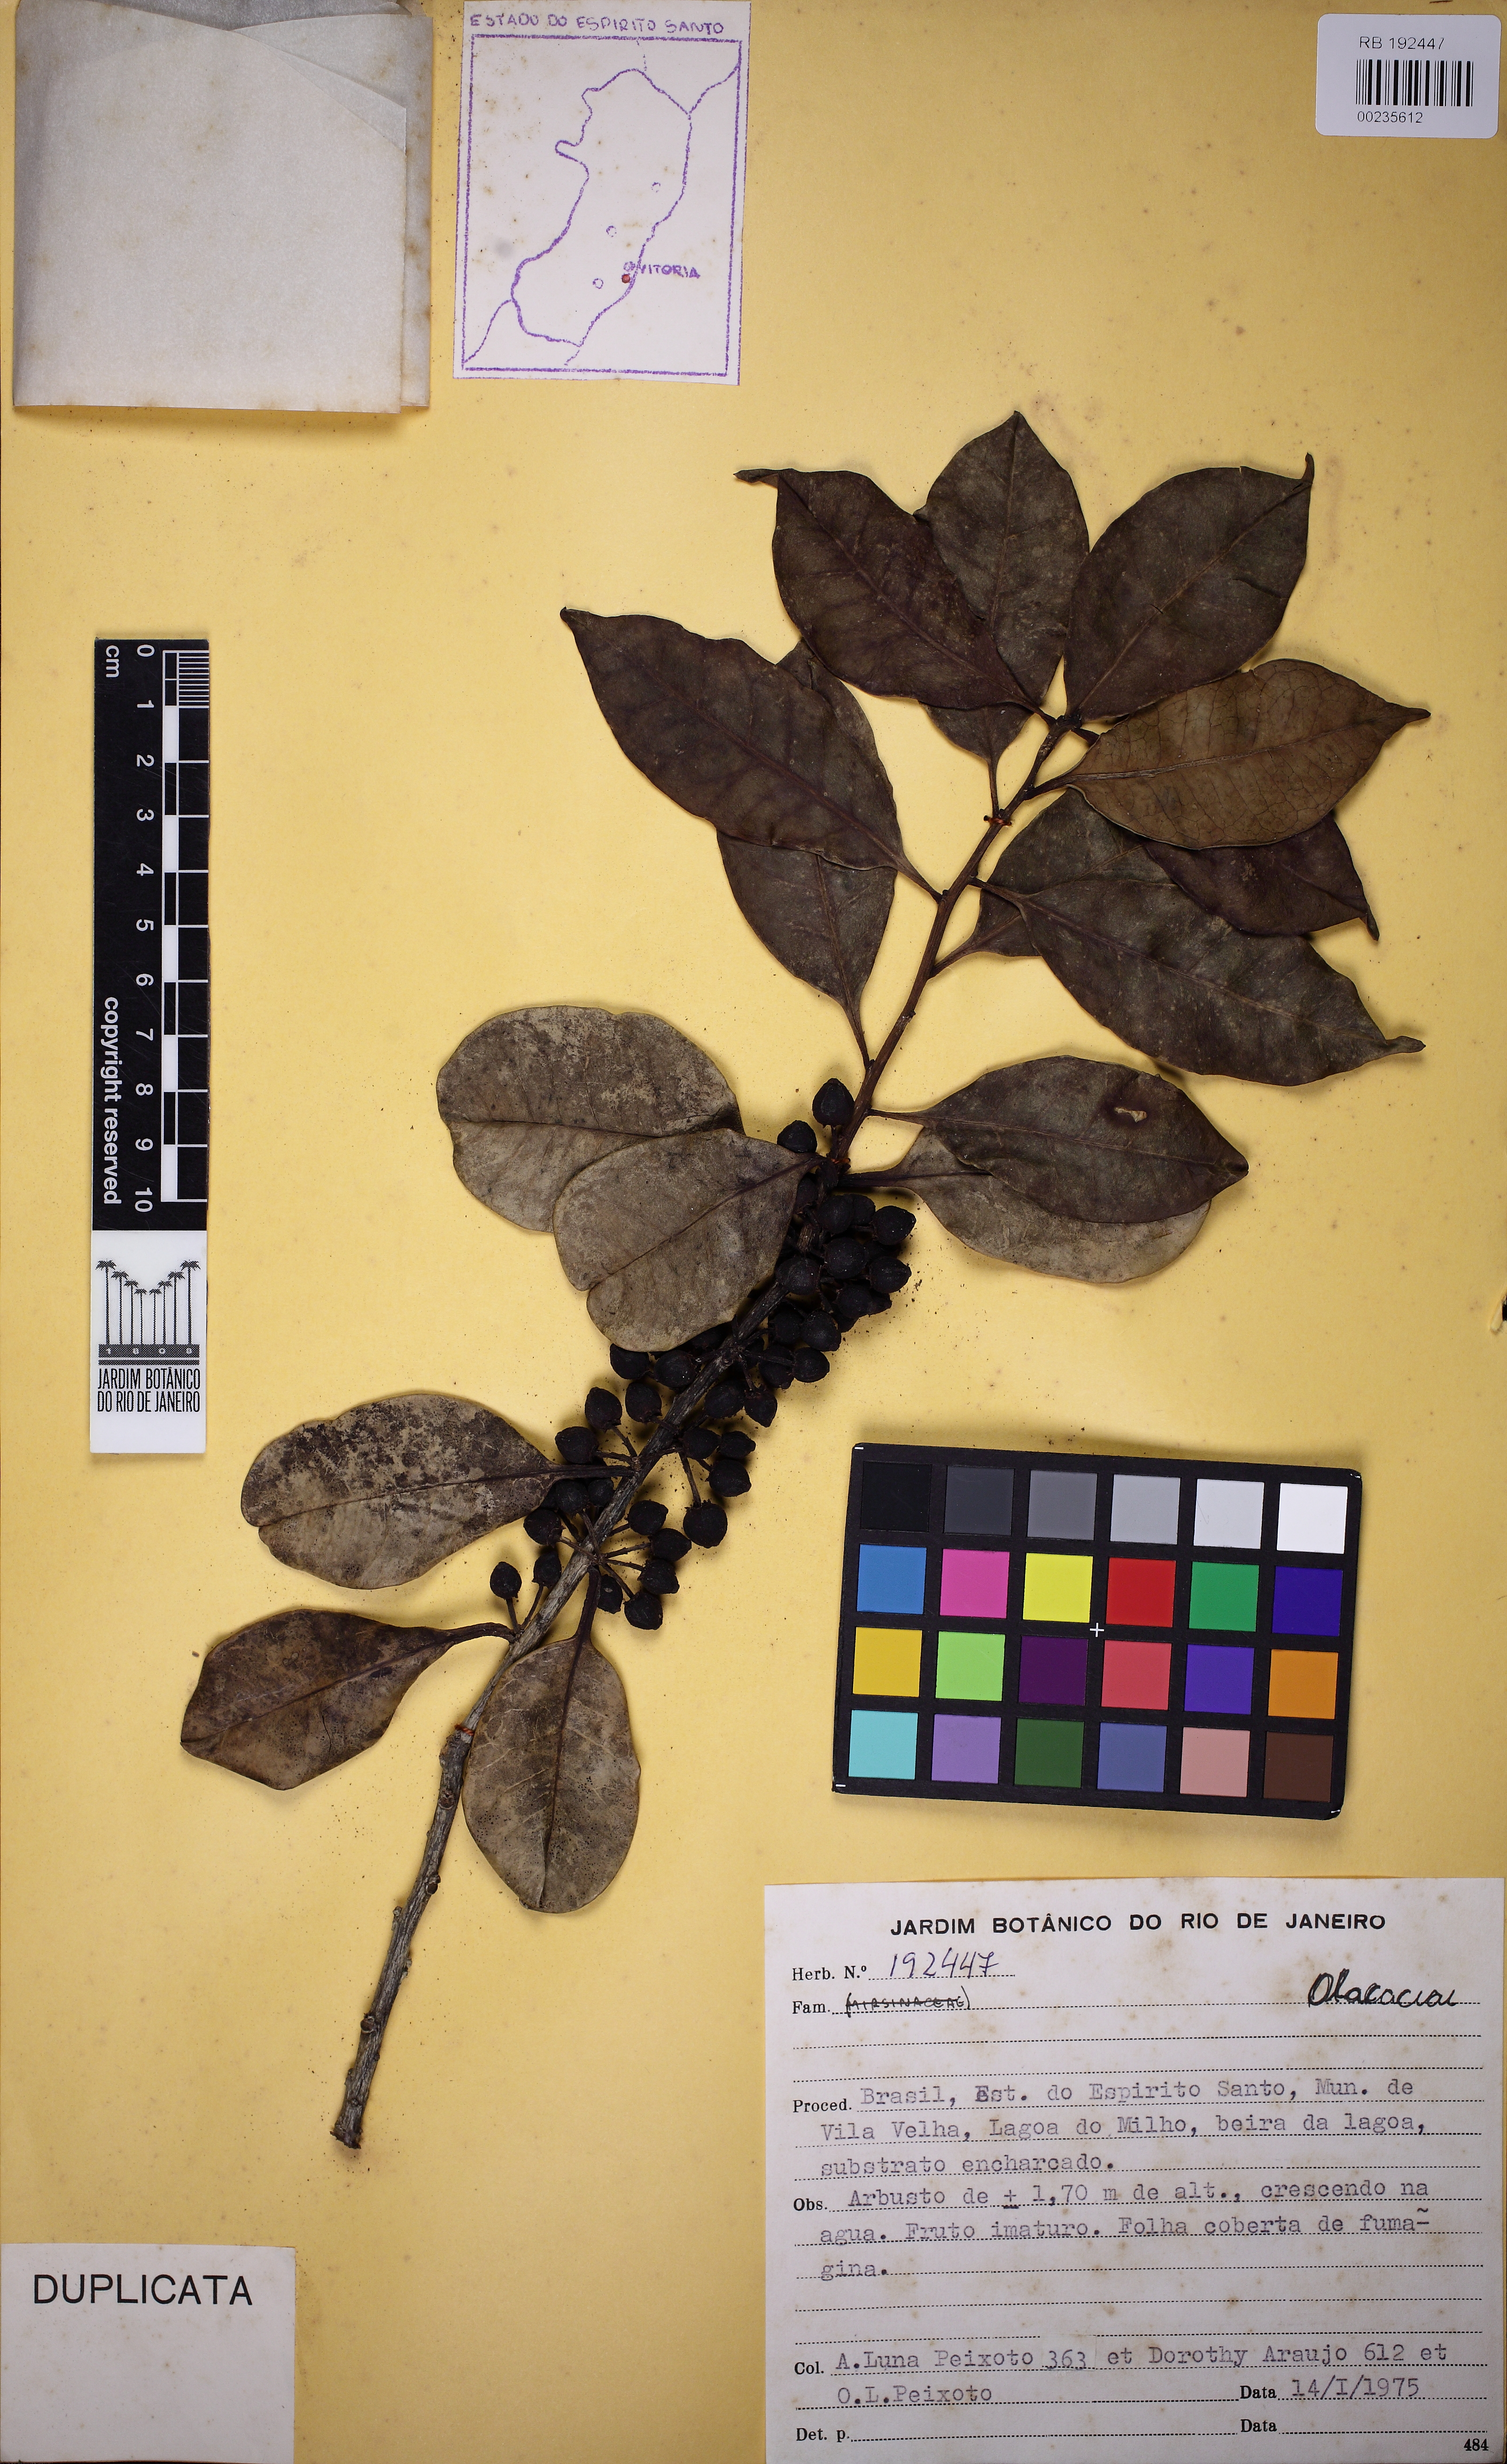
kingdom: Plantae
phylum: Tracheophyta
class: Magnoliopsida
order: Santalales
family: Olacaceae
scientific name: Olacaceae
